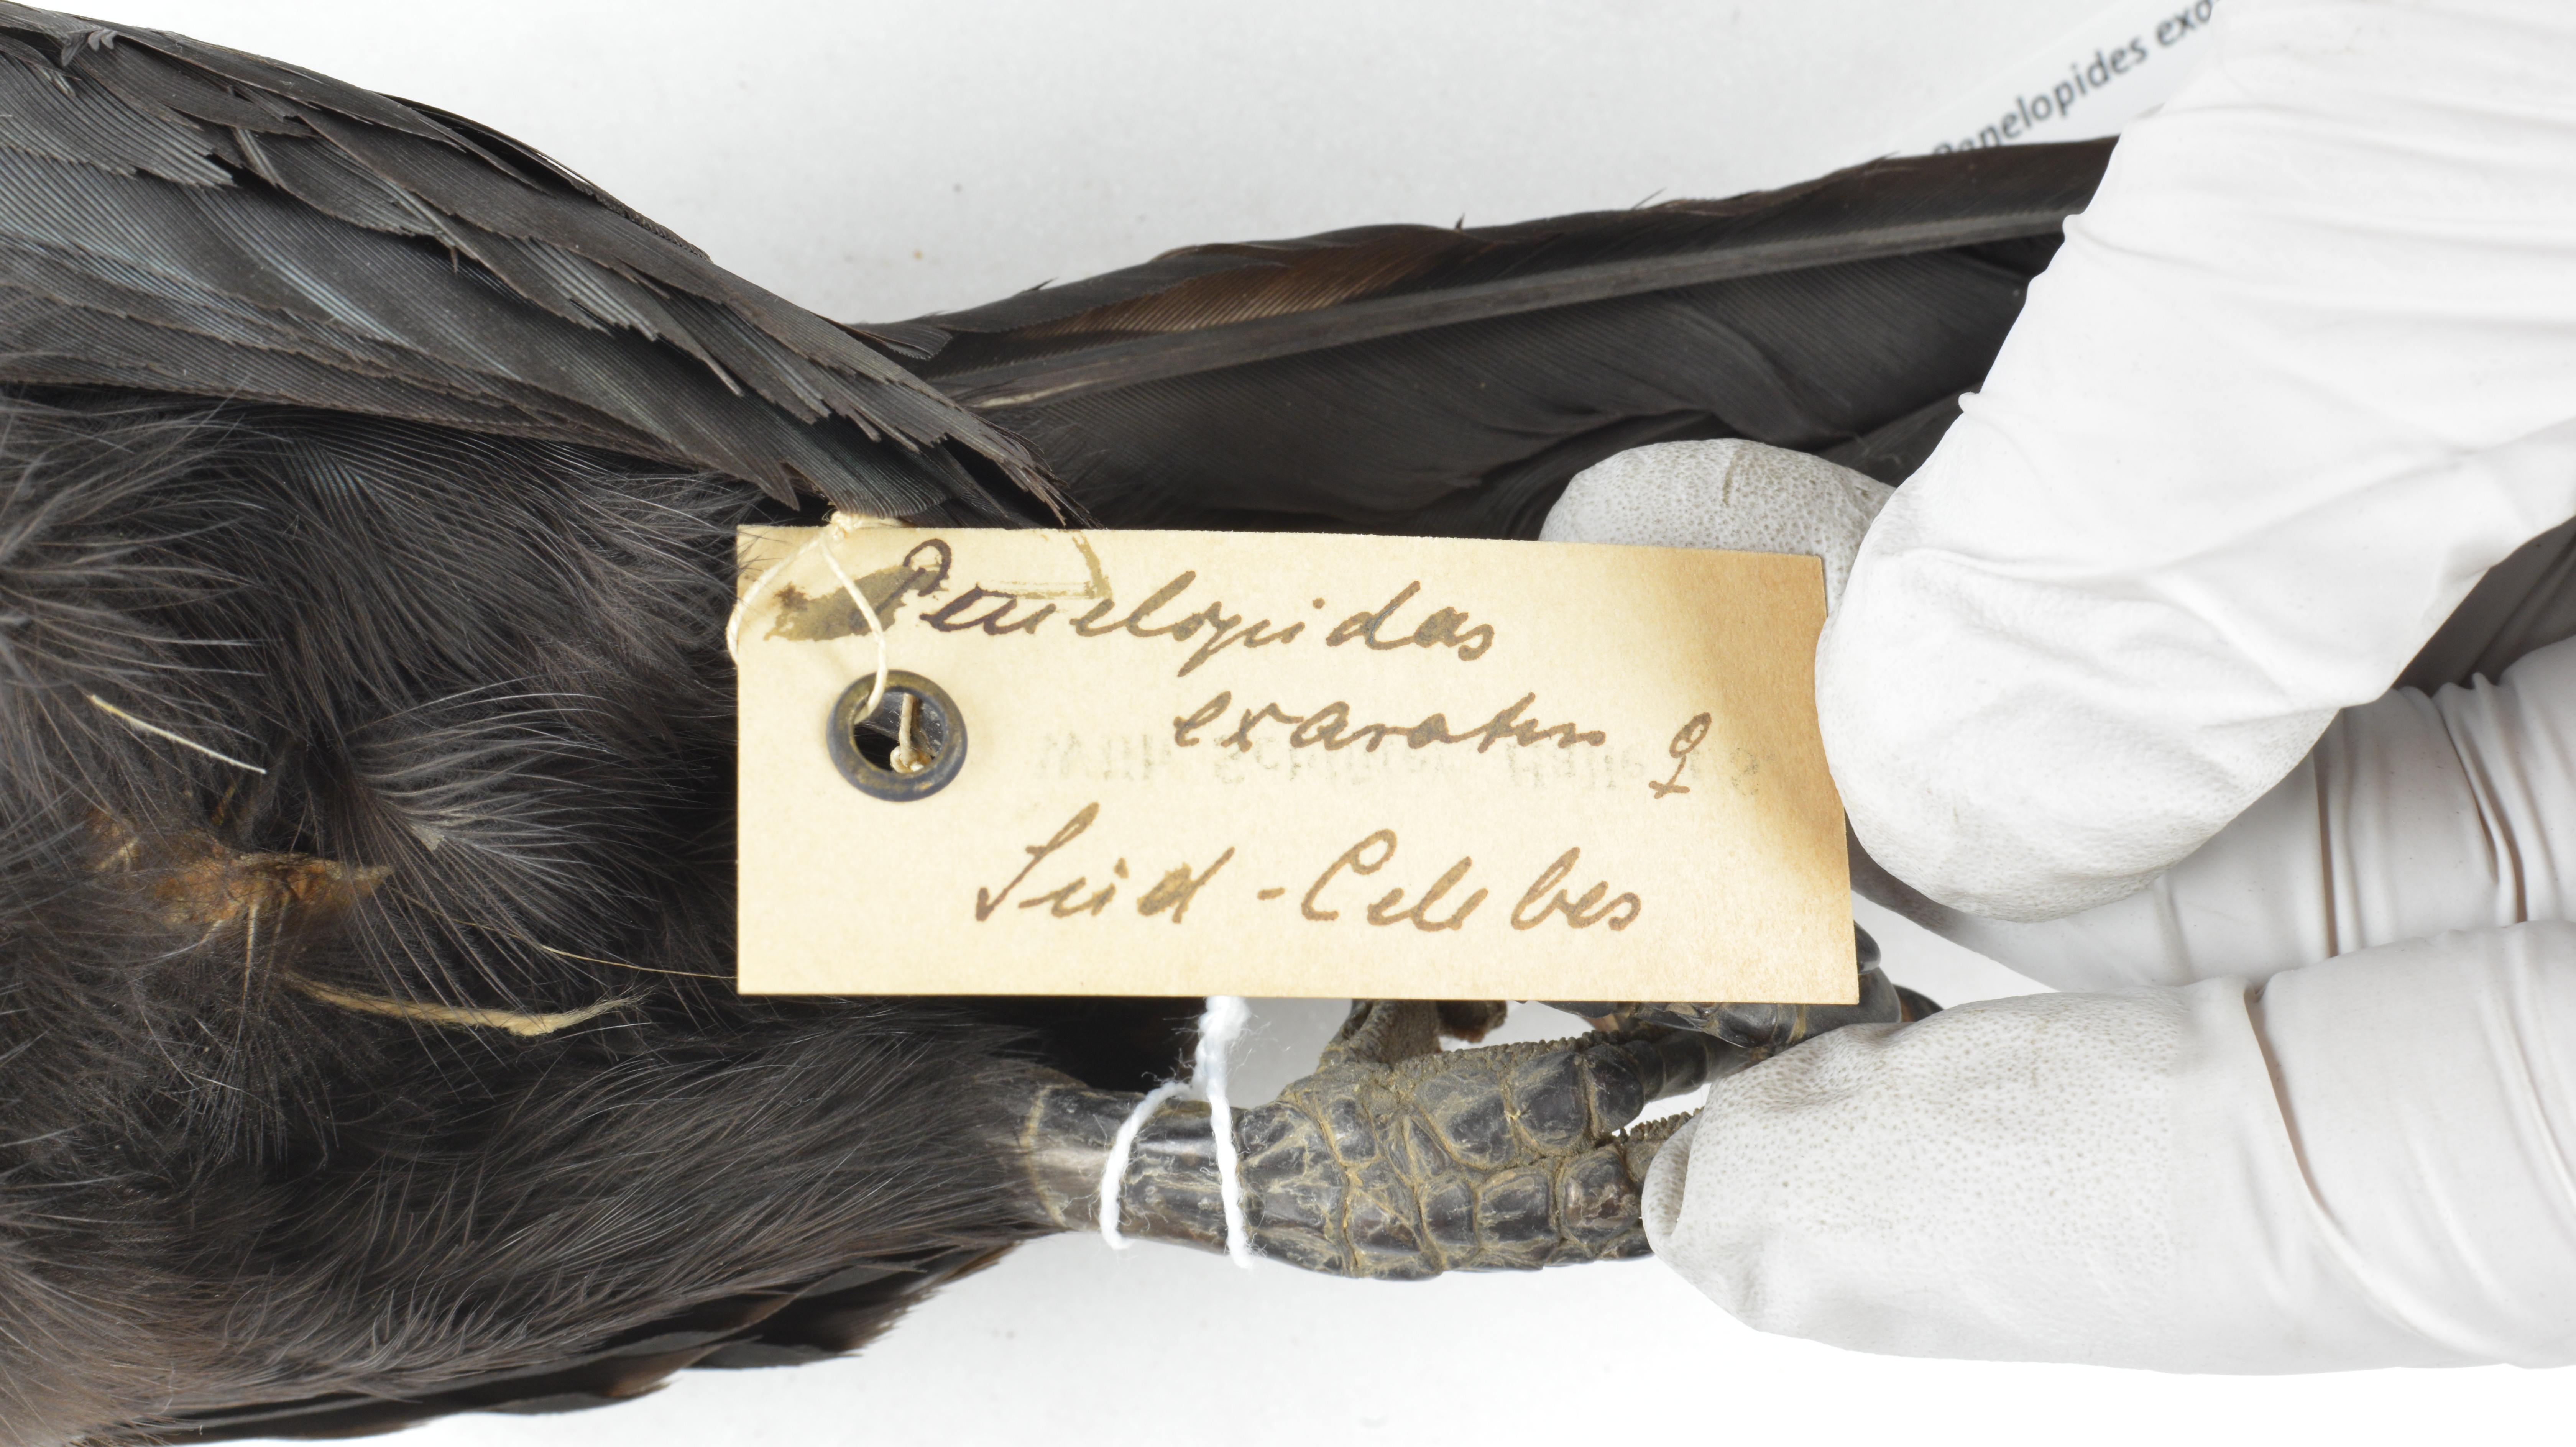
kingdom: Animalia
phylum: Chordata
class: Aves
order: Bucerotiformes
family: Bucerotidae
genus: Rhabdotorrhinus
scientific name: Rhabdotorrhinus exarhatus
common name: Sulawesi hornbill
